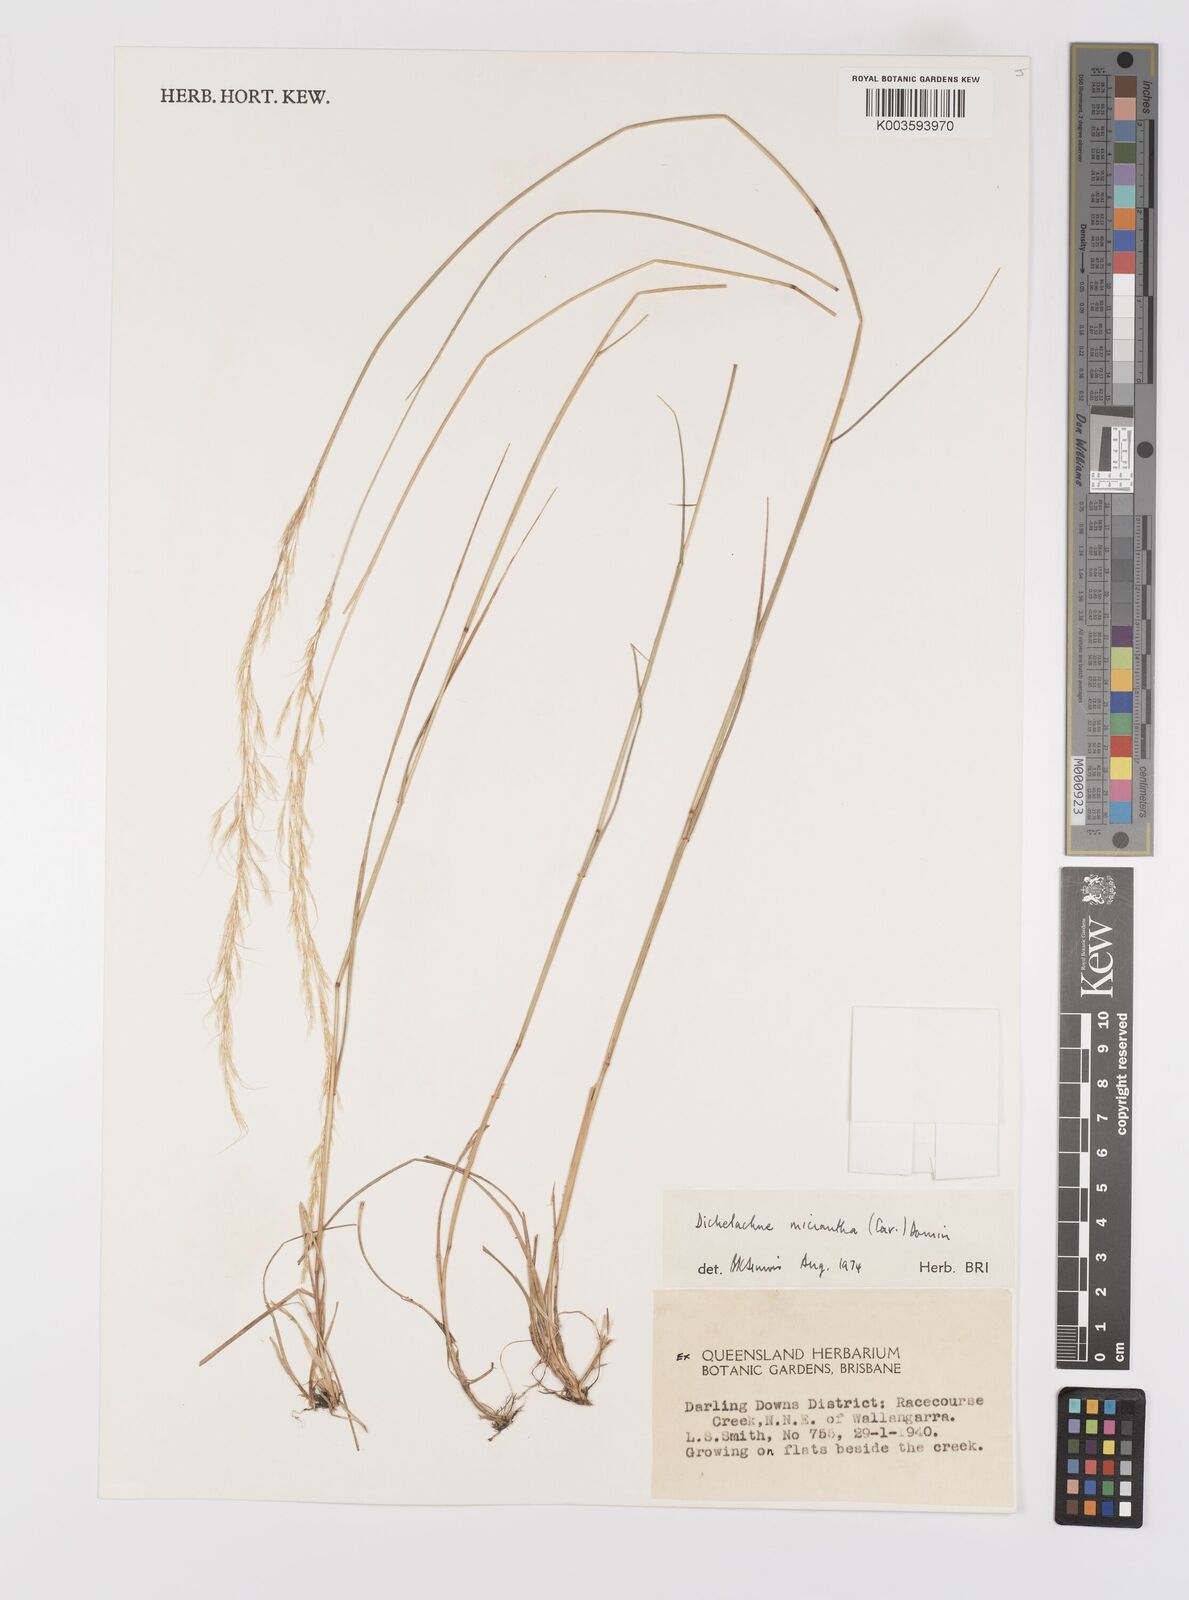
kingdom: Plantae
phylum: Tracheophyta
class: Liliopsida
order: Poales
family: Poaceae
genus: Dichelachne
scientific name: Dichelachne micrantha
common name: Plumegrass
